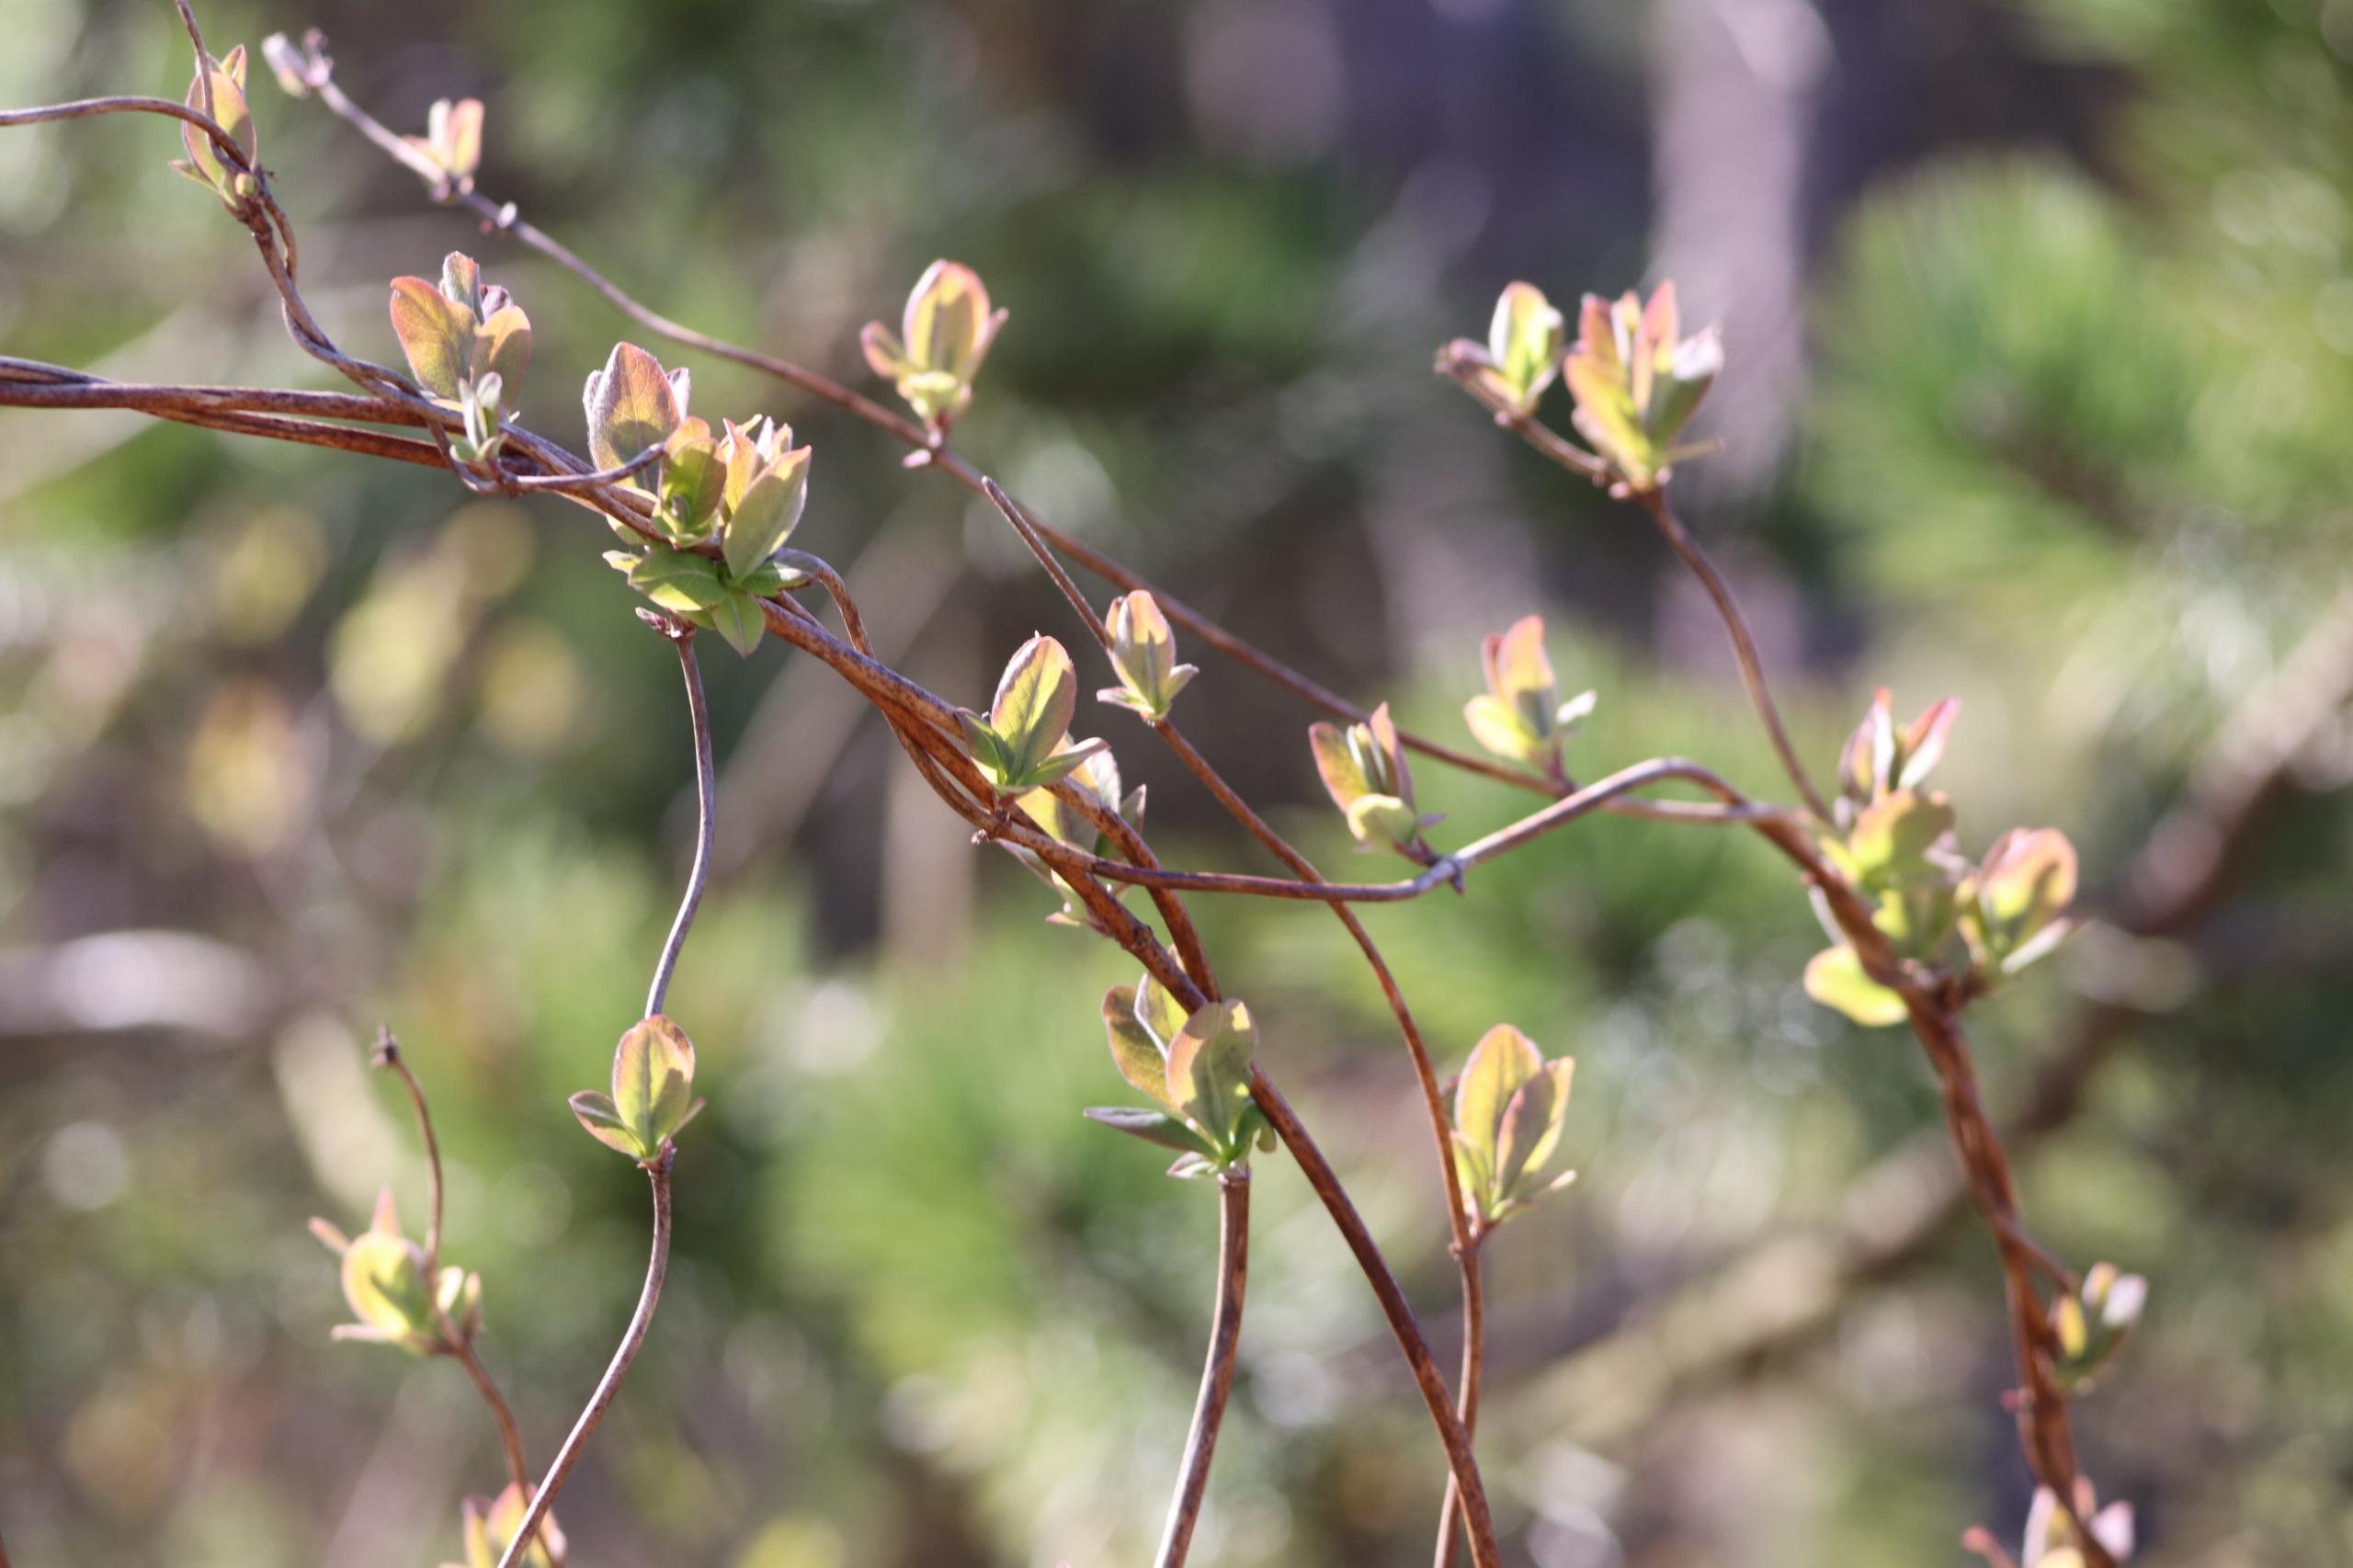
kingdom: Plantae
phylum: Tracheophyta
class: Magnoliopsida
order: Dipsacales
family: Caprifoliaceae
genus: Lonicera
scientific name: Lonicera periclymenum
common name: Almindelig gedeblad
